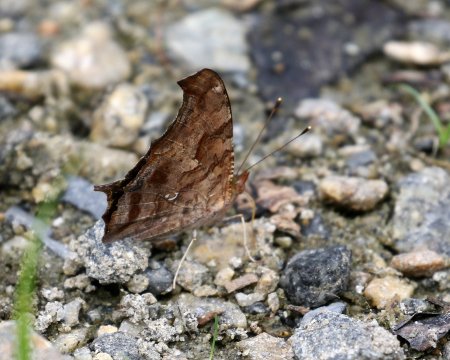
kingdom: Animalia
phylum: Arthropoda
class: Insecta
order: Lepidoptera
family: Nymphalidae
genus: Polygonia
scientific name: Polygonia interrogationis
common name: Question Mark
